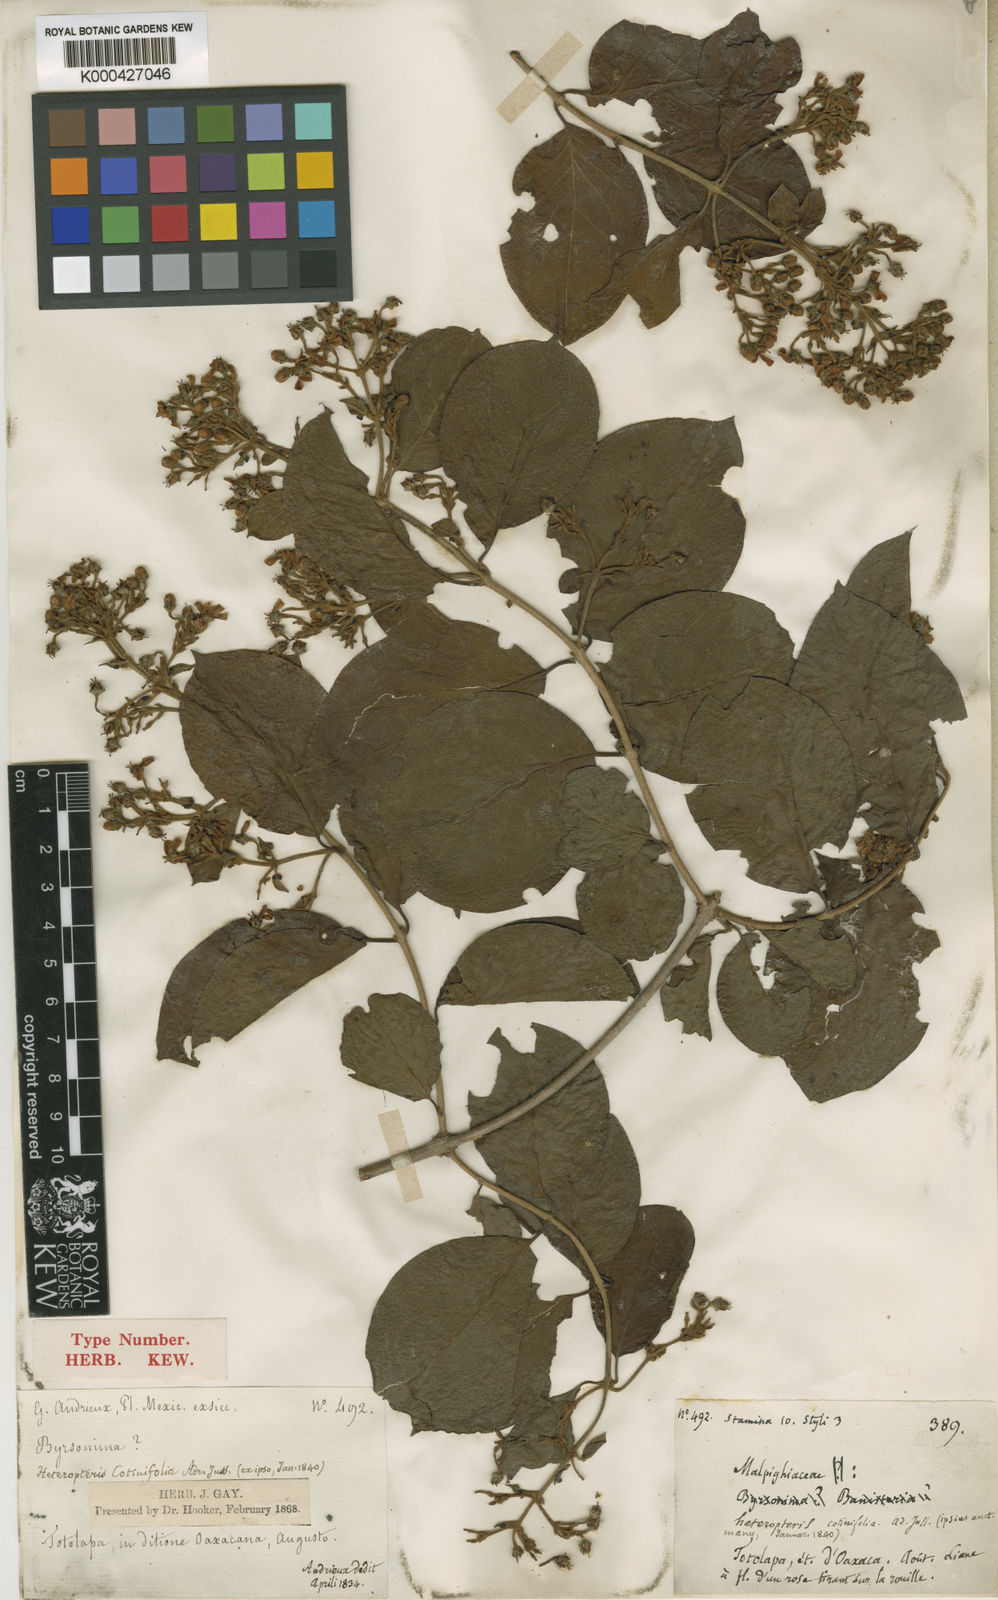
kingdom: Plantae
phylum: Tracheophyta
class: Magnoliopsida
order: Malpighiales
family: Malpighiaceae
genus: Heteropterys
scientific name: Heteropterys cotinifolia
